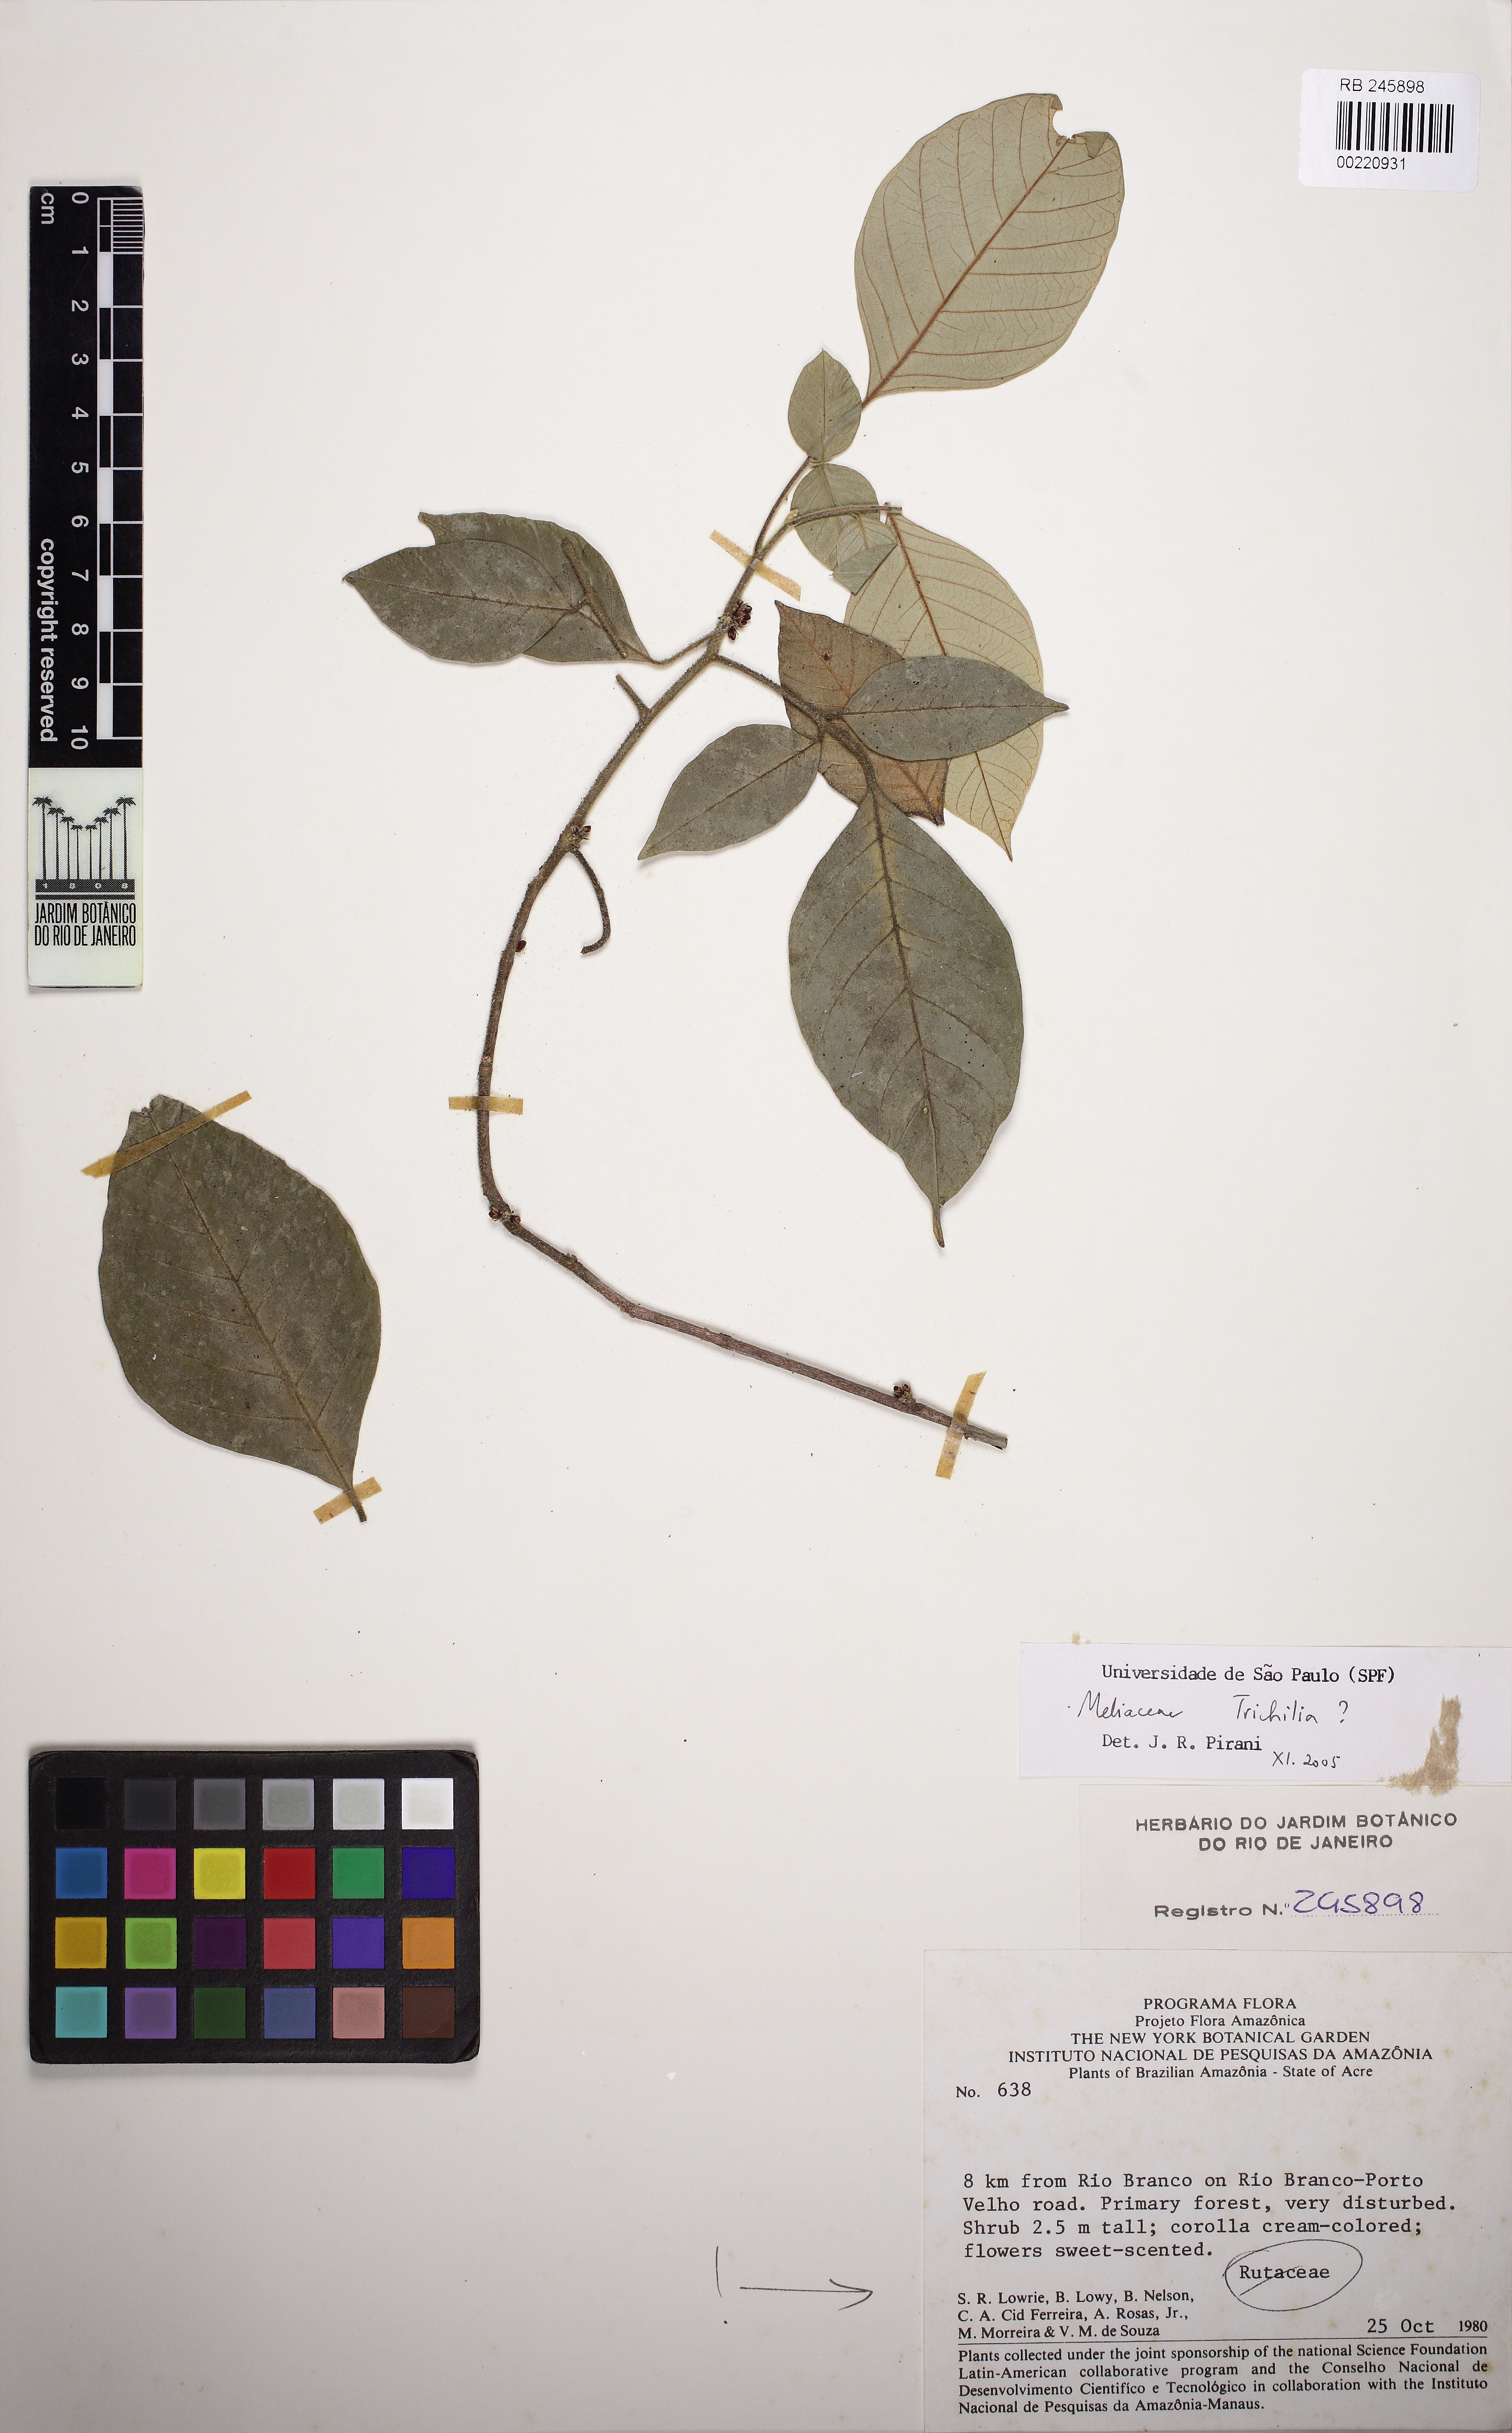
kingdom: Plantae
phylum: Tracheophyta
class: Magnoliopsida
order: Sapindales
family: Meliaceae
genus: Trichilia
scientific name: Trichilia
